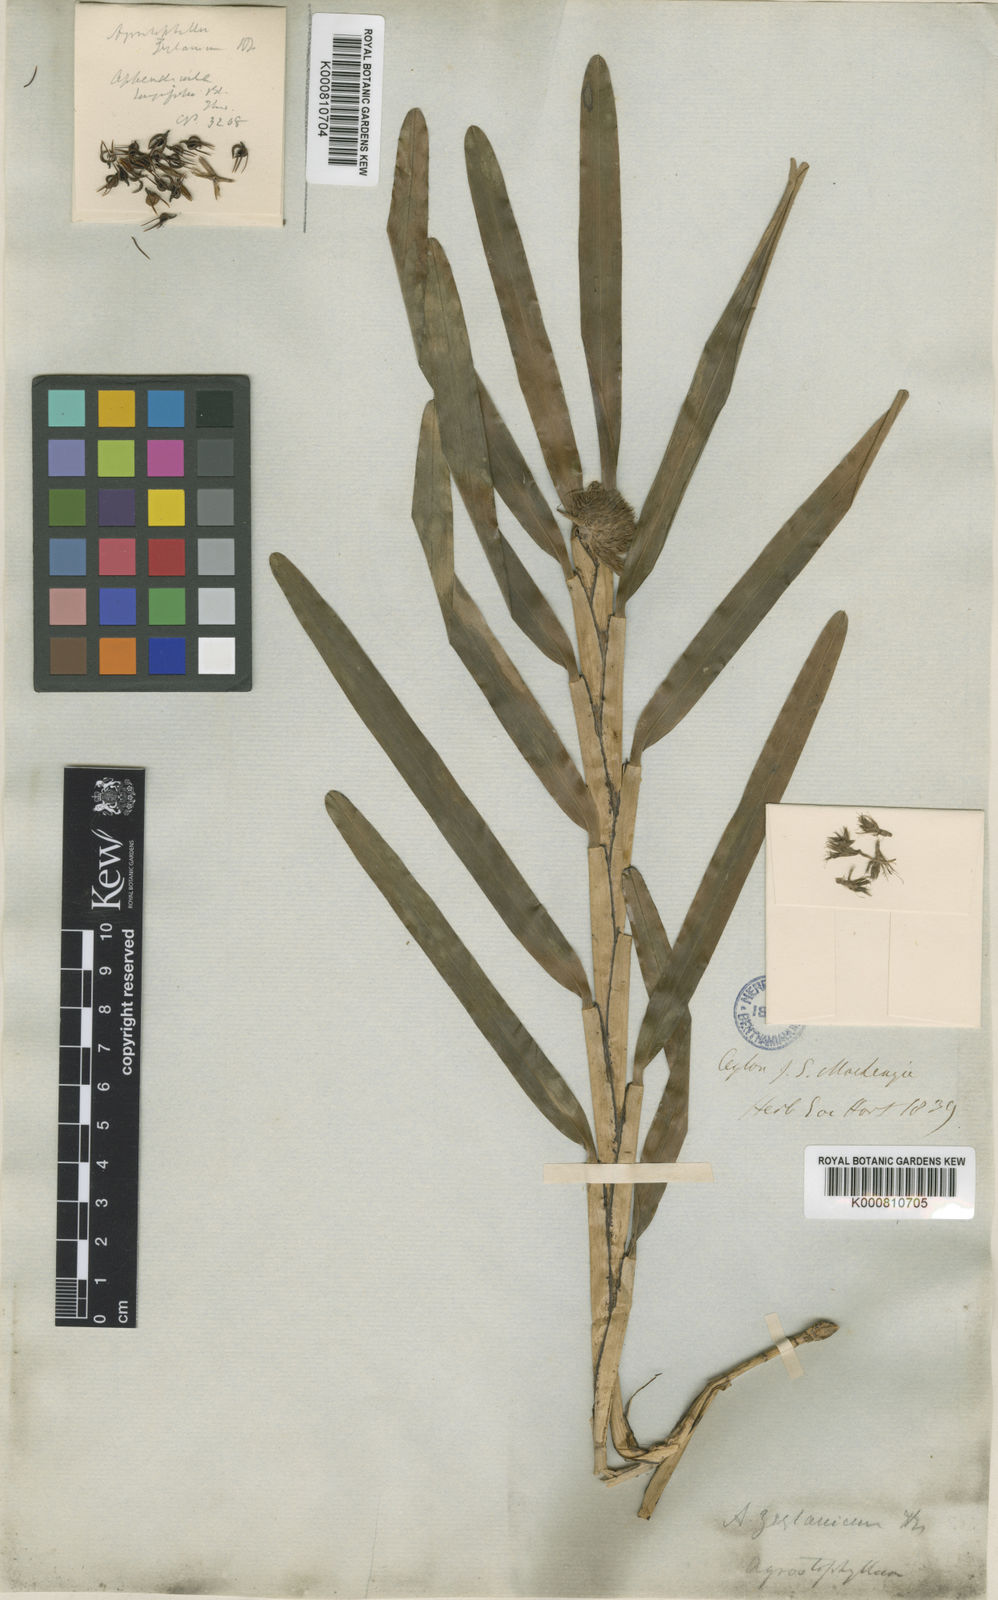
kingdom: Plantae
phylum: Tracheophyta
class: Liliopsida
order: Asparagales
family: Orchidaceae
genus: Agrostophyllum
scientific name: Agrostophyllum zeylanicum
